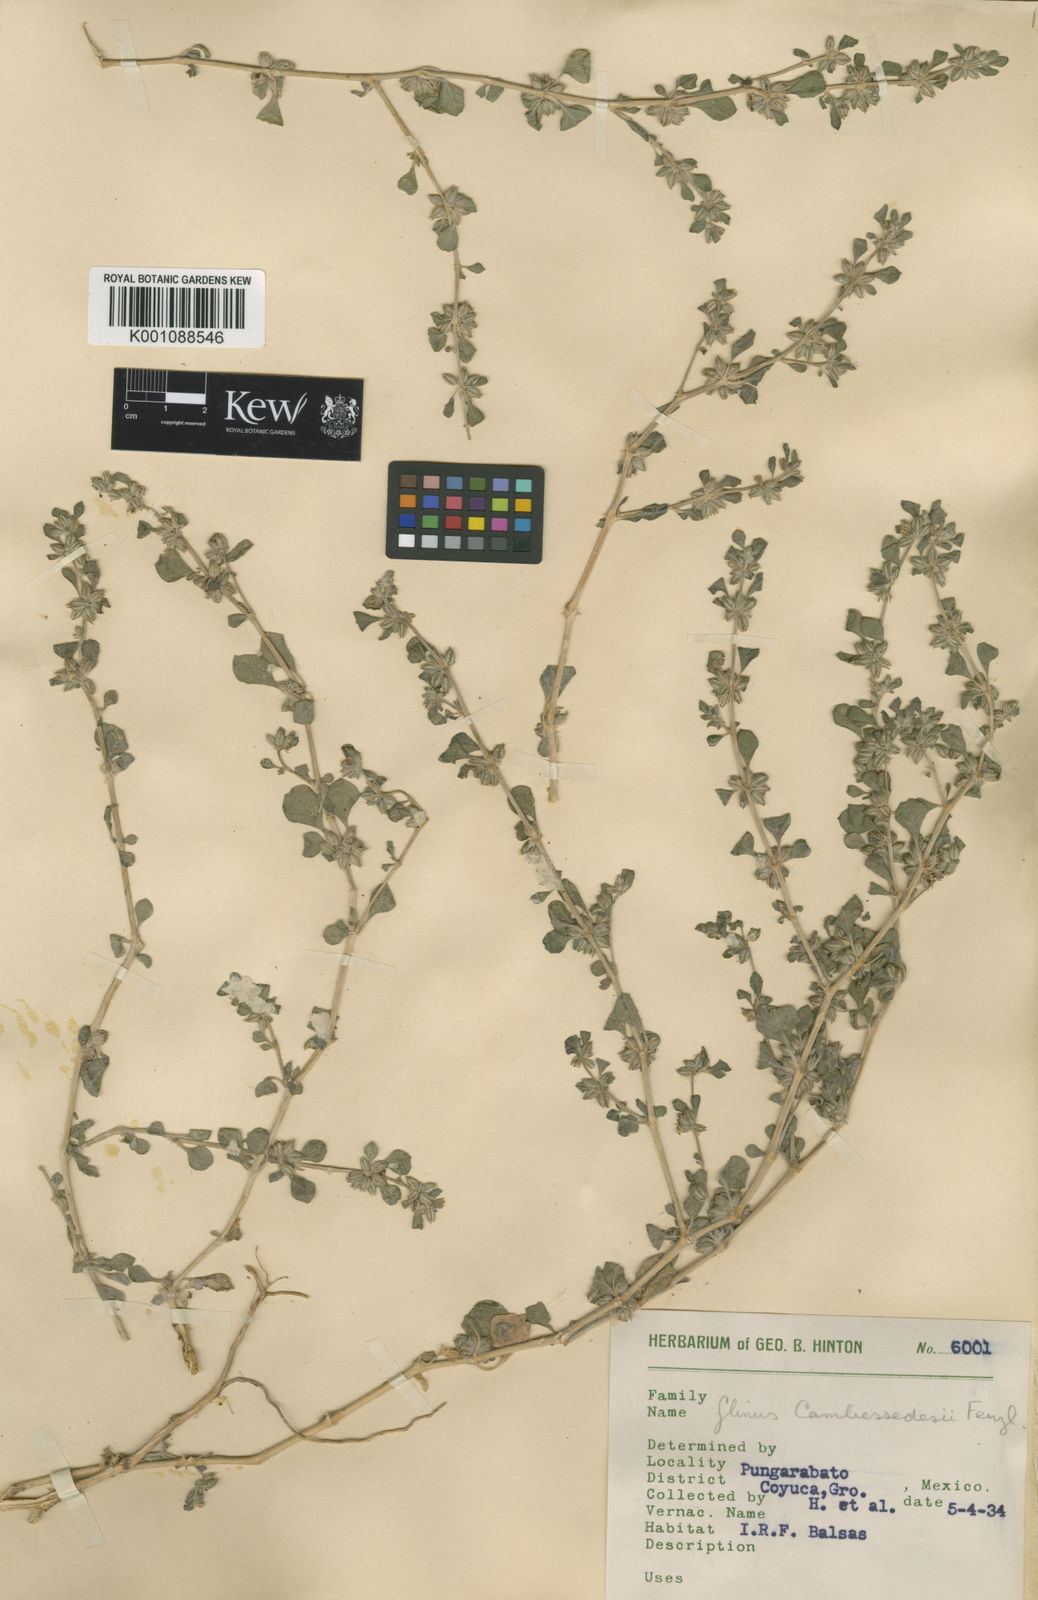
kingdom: Plantae
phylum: Tracheophyta
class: Magnoliopsida
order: Caryophyllales
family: Molluginaceae
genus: Glinus
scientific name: Glinus radiatus
